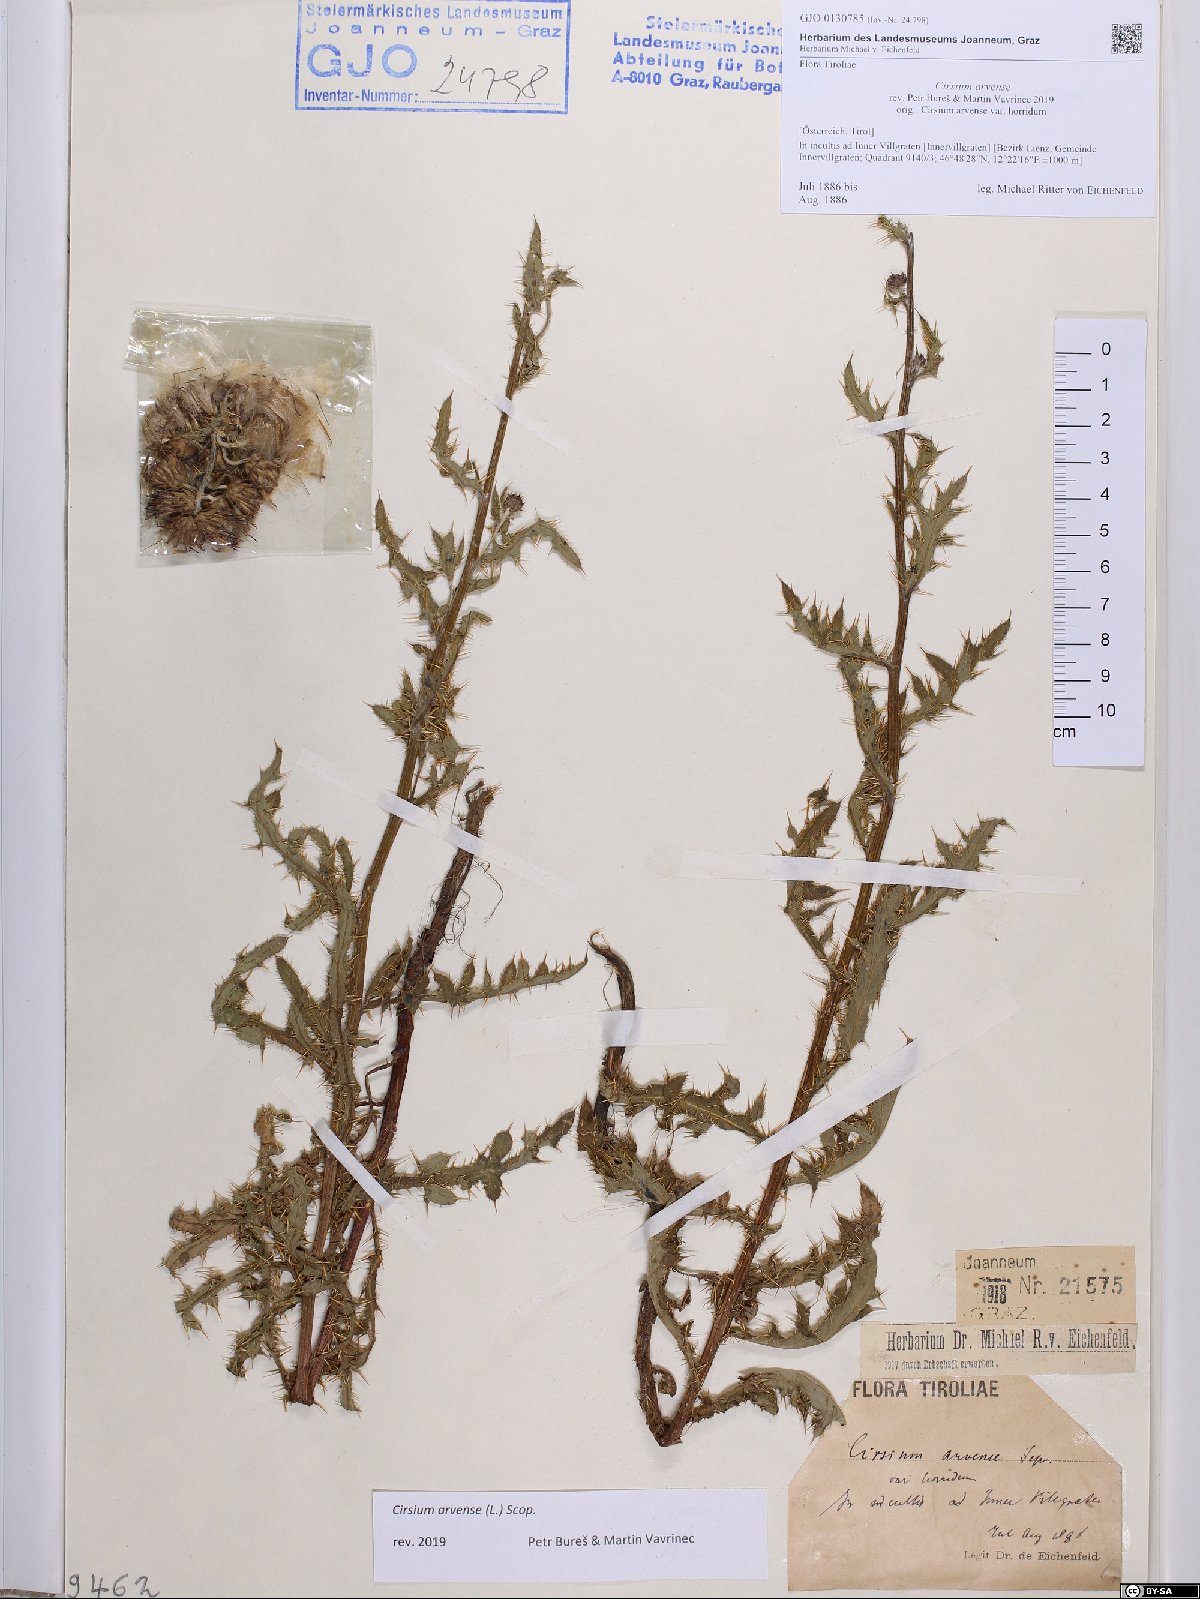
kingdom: Plantae
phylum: Tracheophyta
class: Magnoliopsida
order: Asterales
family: Asteraceae
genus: Cirsium
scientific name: Cirsium arvense
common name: Creeping thistle
